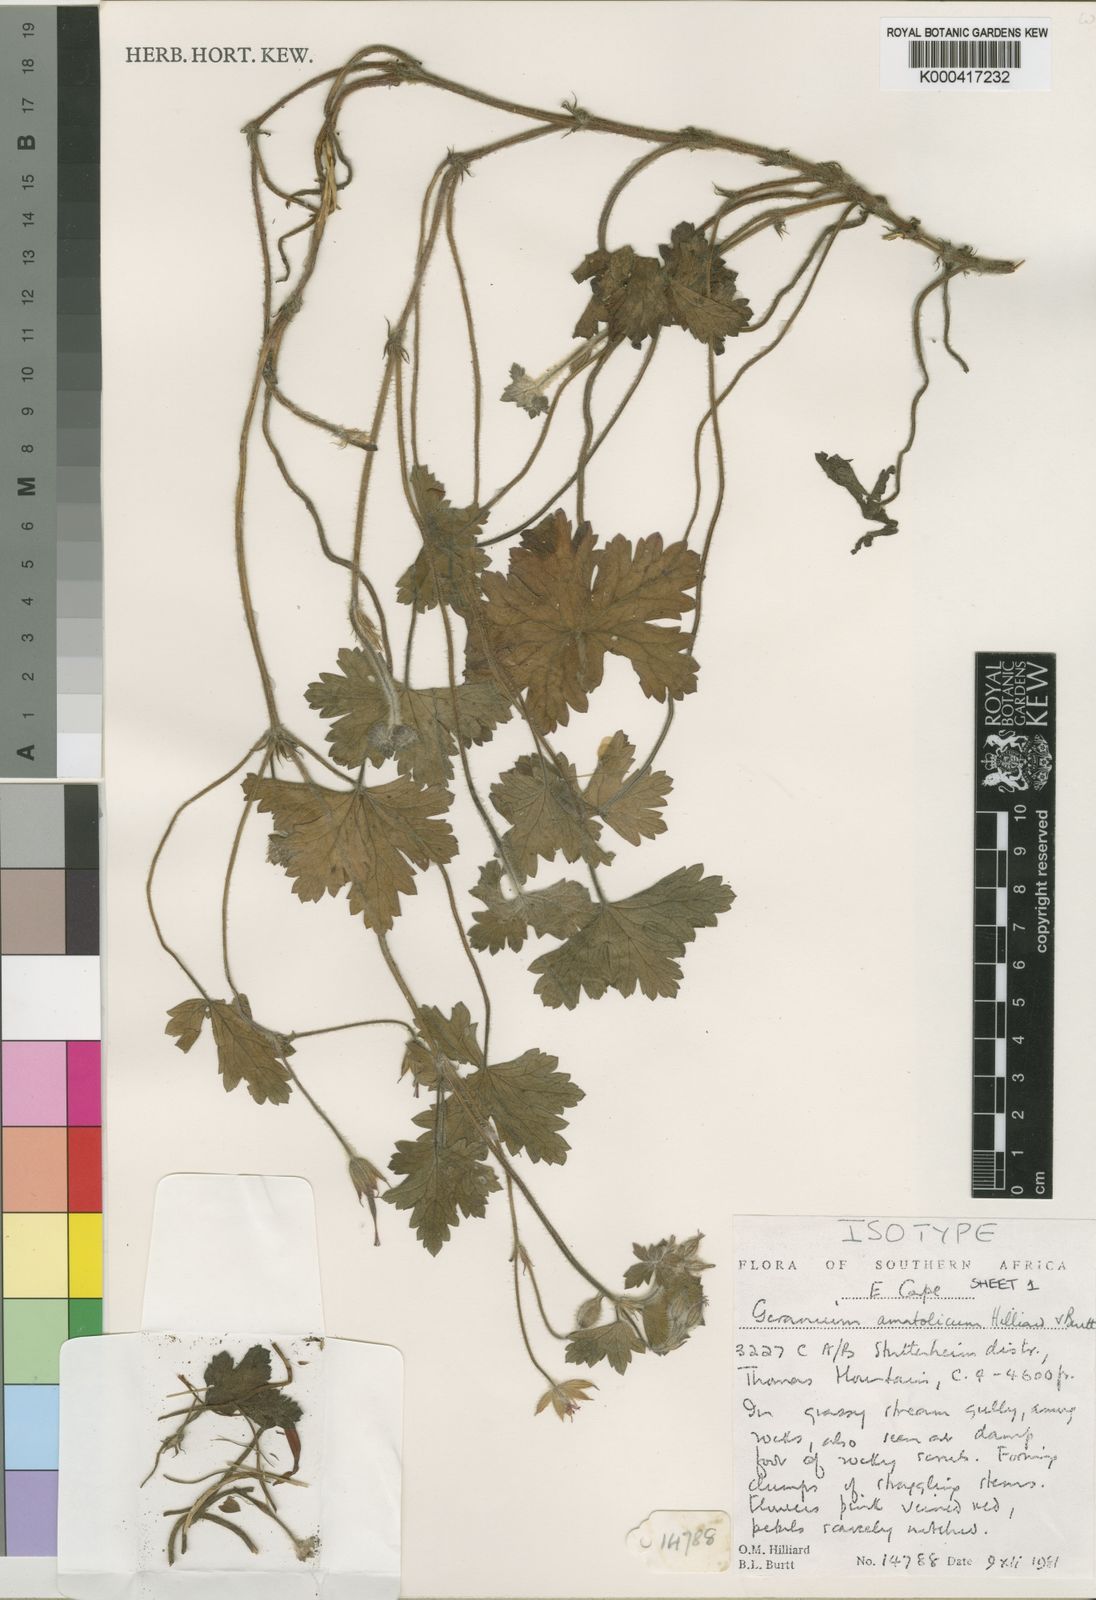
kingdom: Plantae
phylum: Tracheophyta
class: Magnoliopsida
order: Geraniales
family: Geraniaceae
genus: Geranium
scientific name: Geranium amatolicum
